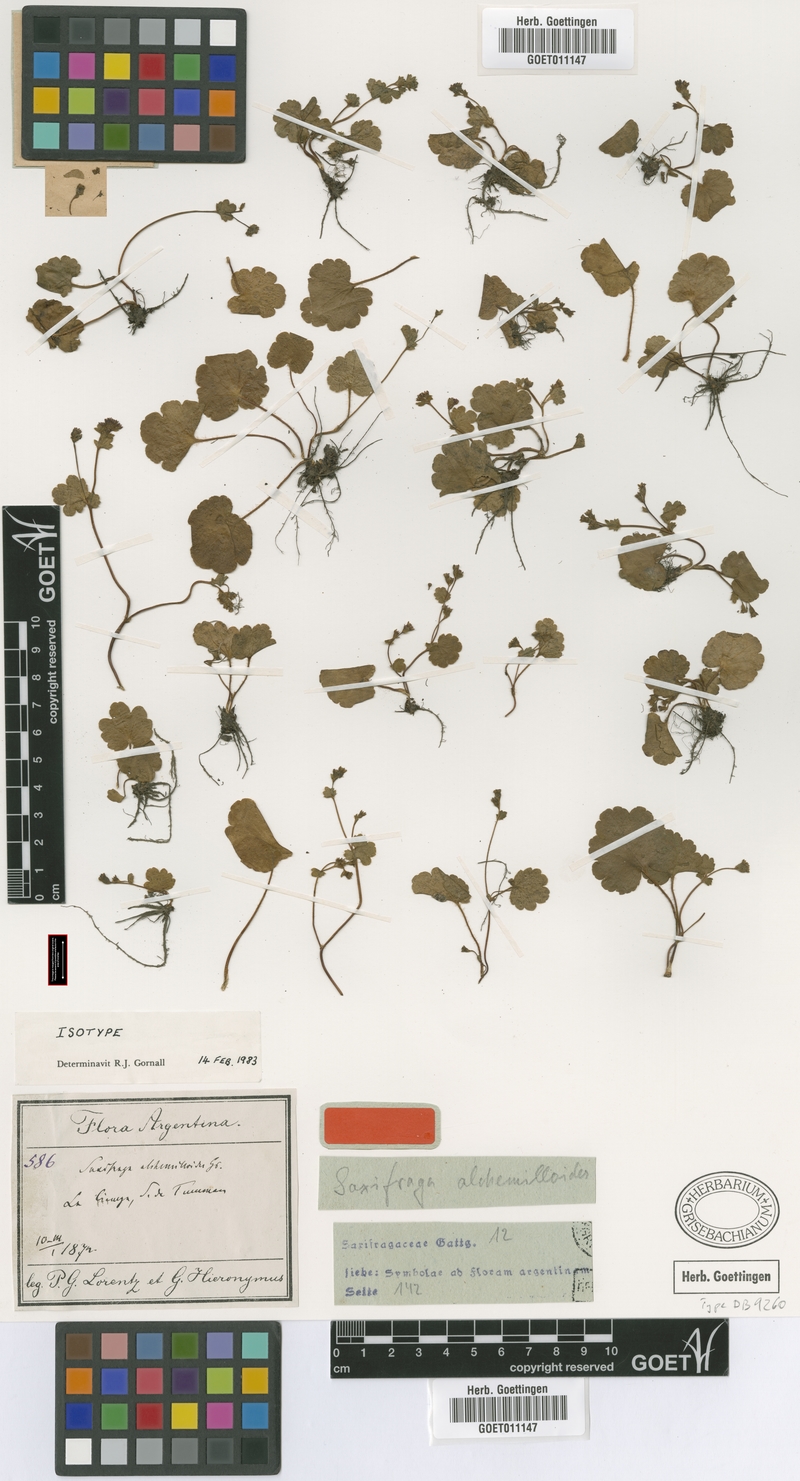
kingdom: Plantae
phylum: Tracheophyta
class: Magnoliopsida
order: Saxifragales
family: Saxifragaceae
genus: Hieronymusia
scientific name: Hieronymusia alchemilloides
